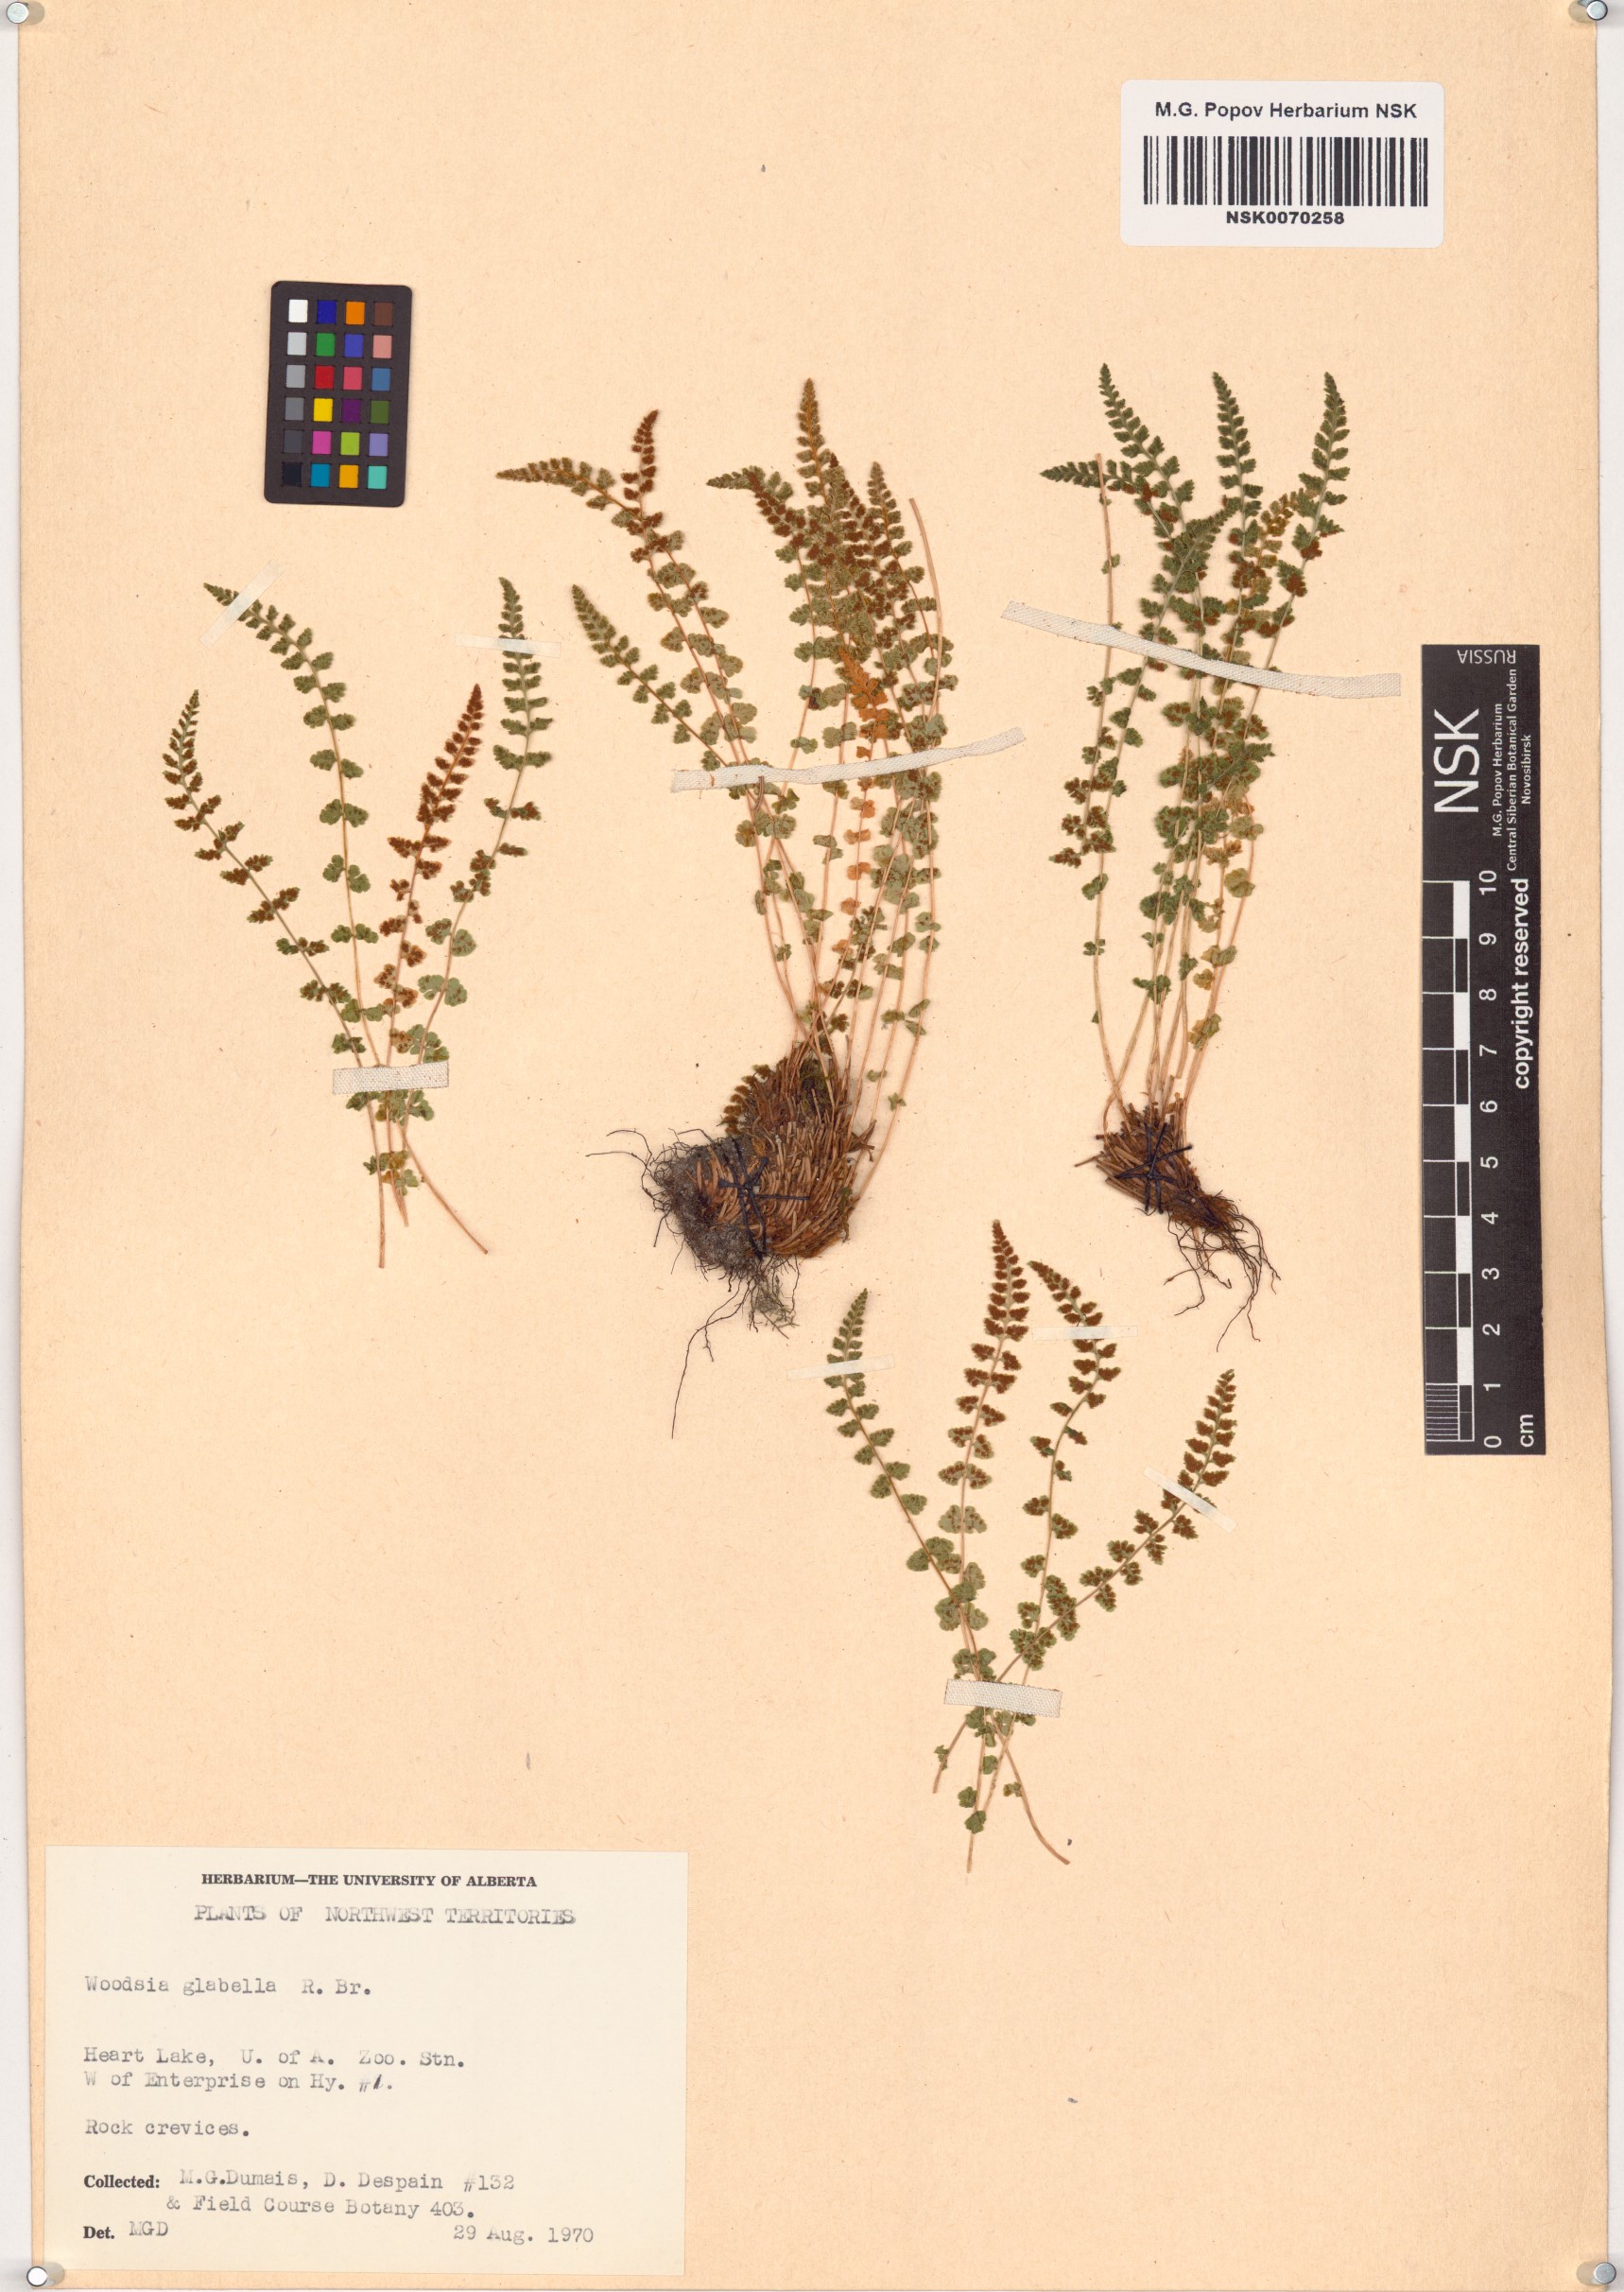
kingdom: Plantae
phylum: Tracheophyta
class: Polypodiopsida
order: Polypodiales
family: Woodsiaceae
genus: Woodsia
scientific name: Woodsia glabella
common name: Smooth woodsia
